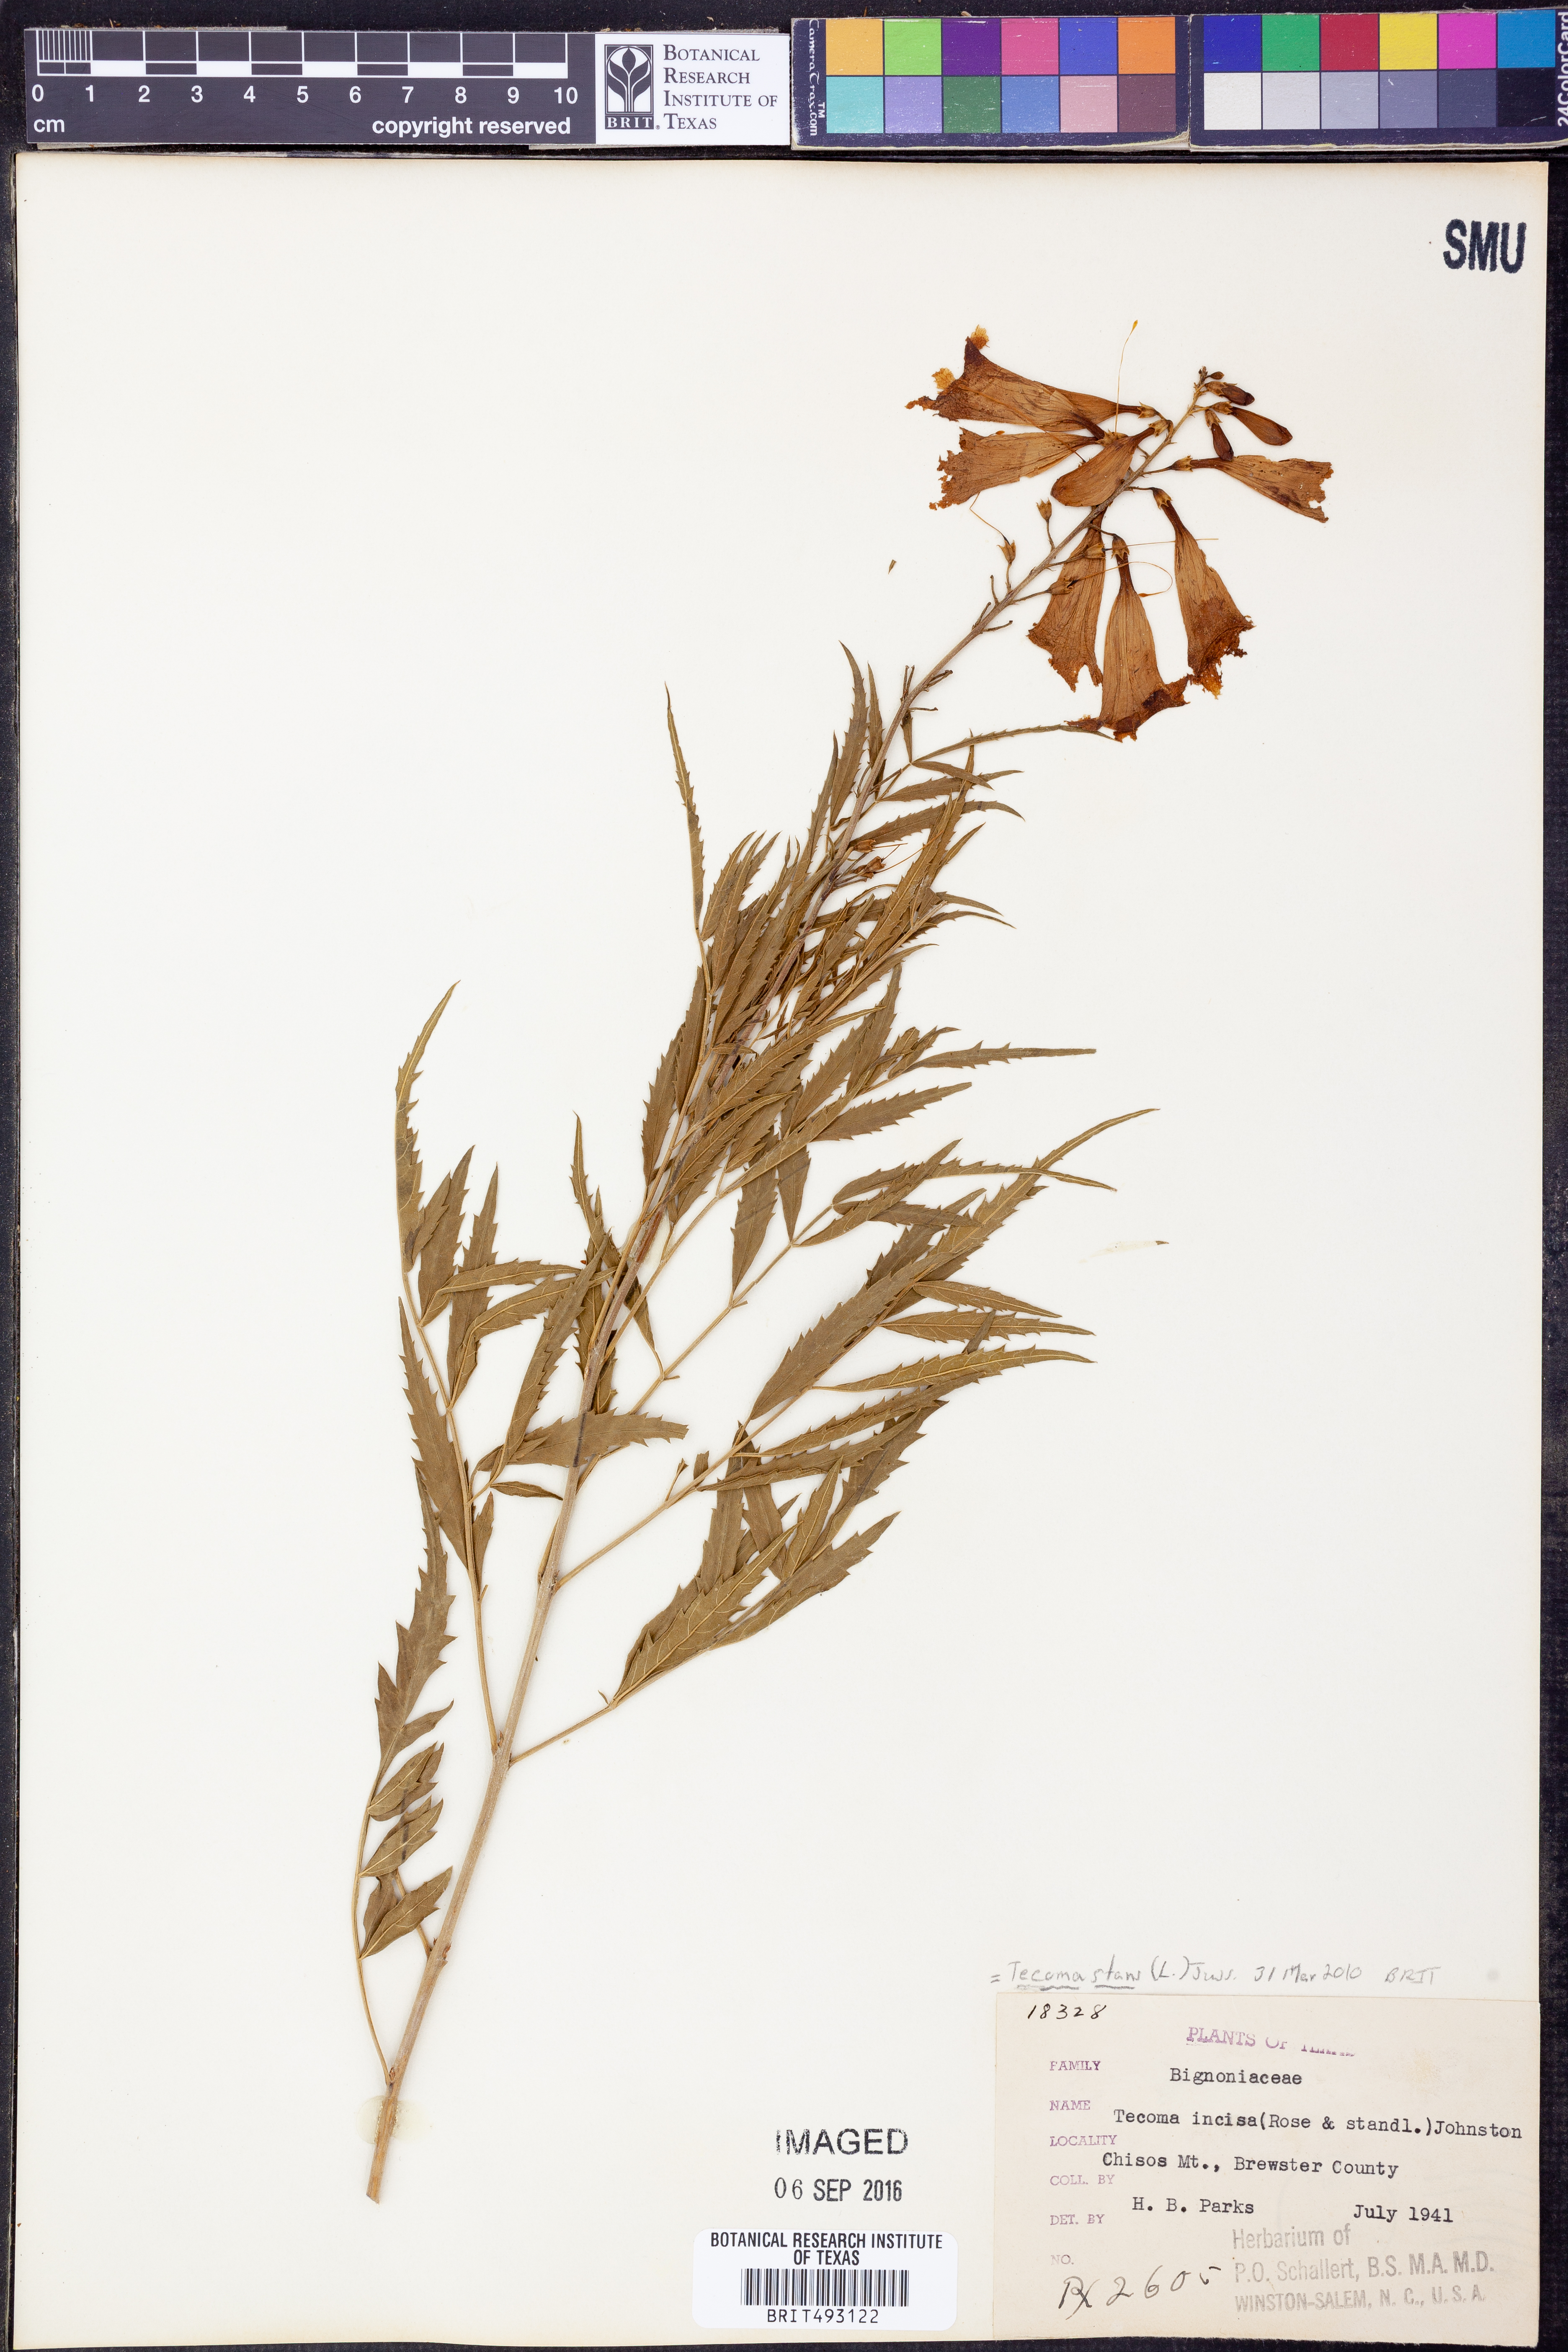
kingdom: Plantae
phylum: Tracheophyta
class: Magnoliopsida
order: Lamiales
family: Bignoniaceae
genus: Tecoma
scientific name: Tecoma stans
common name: Yellow trumpetbush
